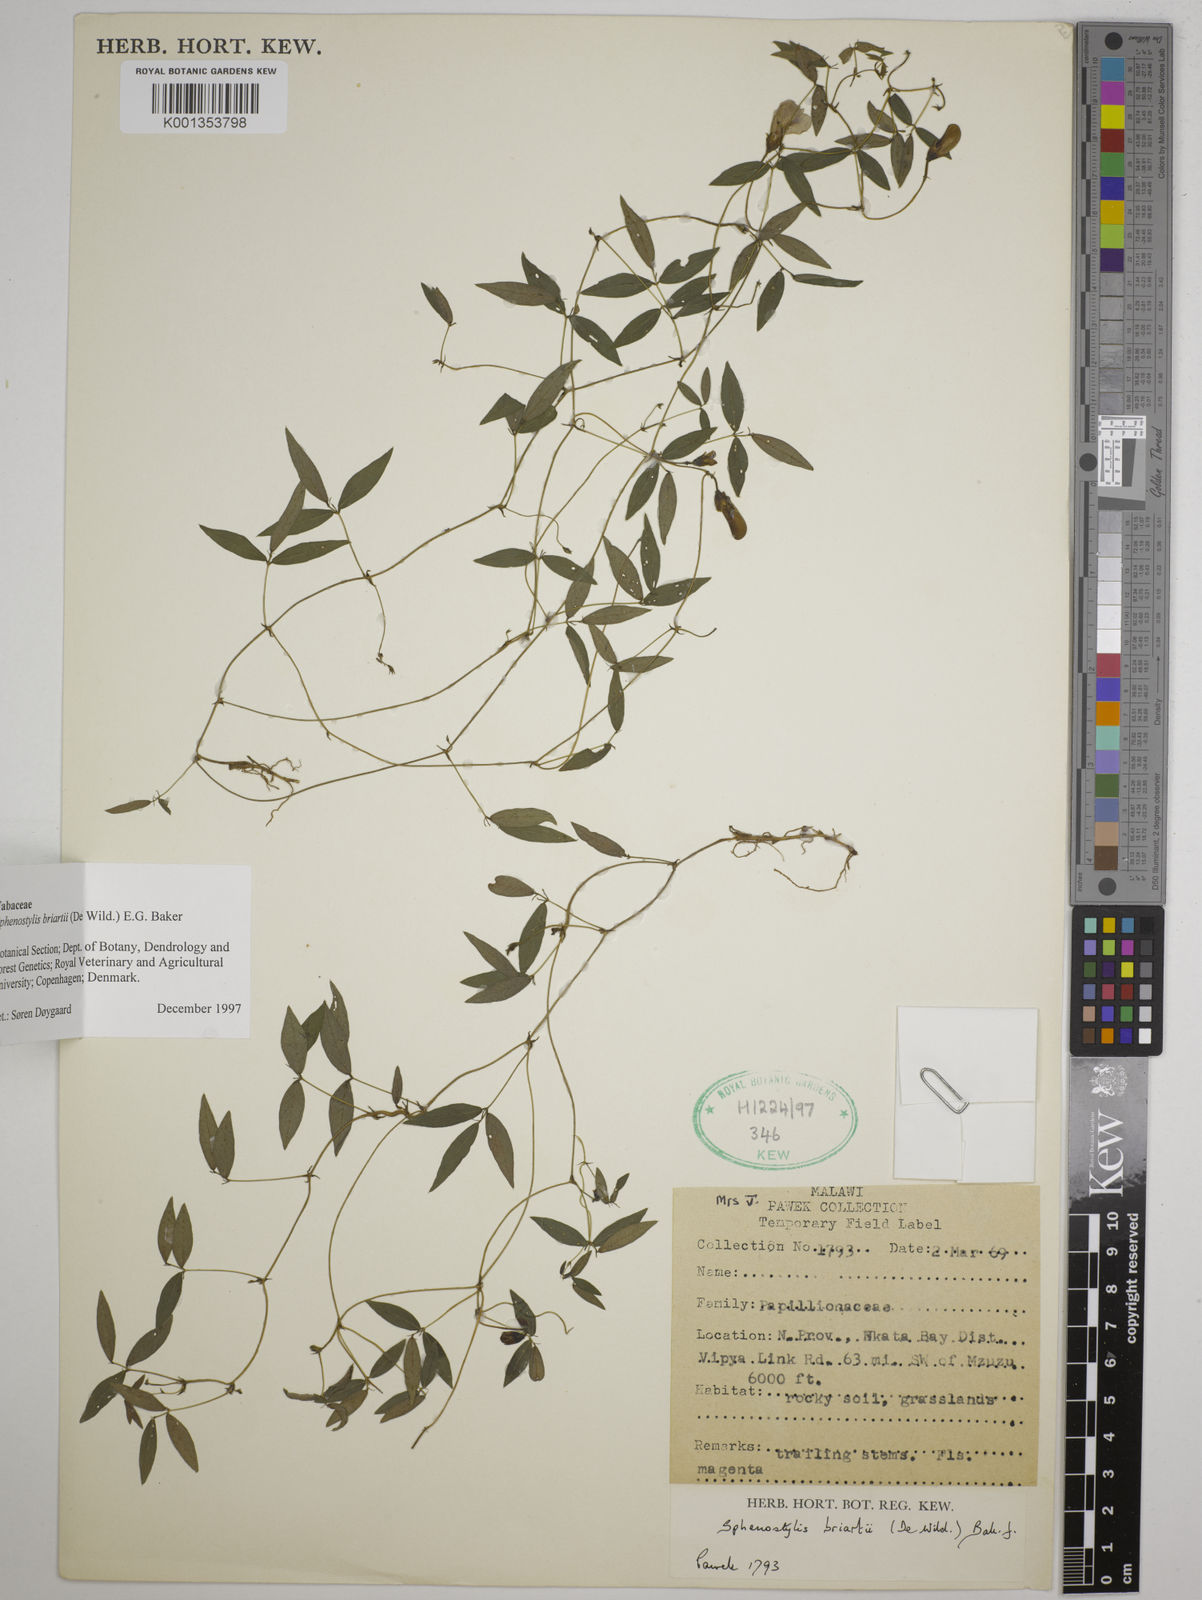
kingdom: Plantae
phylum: Tracheophyta
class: Magnoliopsida
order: Fabales
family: Fabaceae
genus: Sphenostylis
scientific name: Sphenostylis briartii
